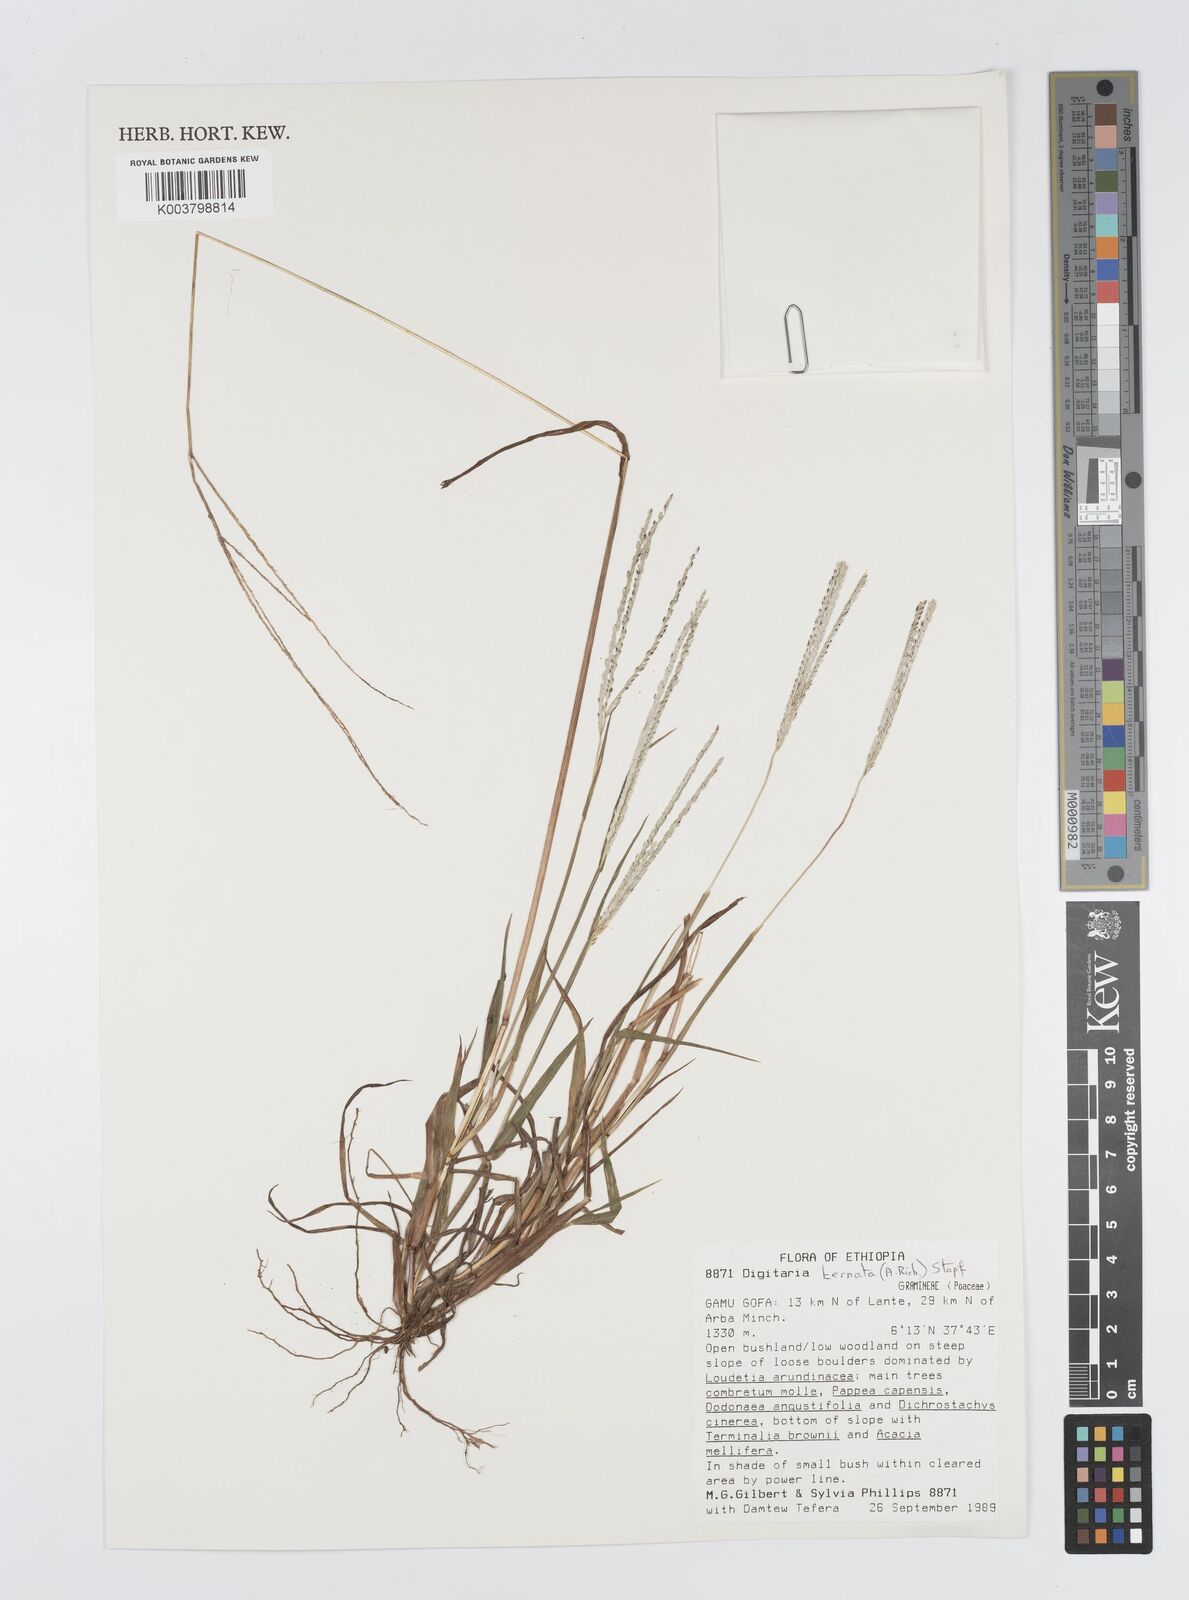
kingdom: Plantae
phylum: Tracheophyta
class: Liliopsida
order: Poales
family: Poaceae
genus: Digitaria
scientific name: Digitaria ternata
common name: Blackseed crabgrass
